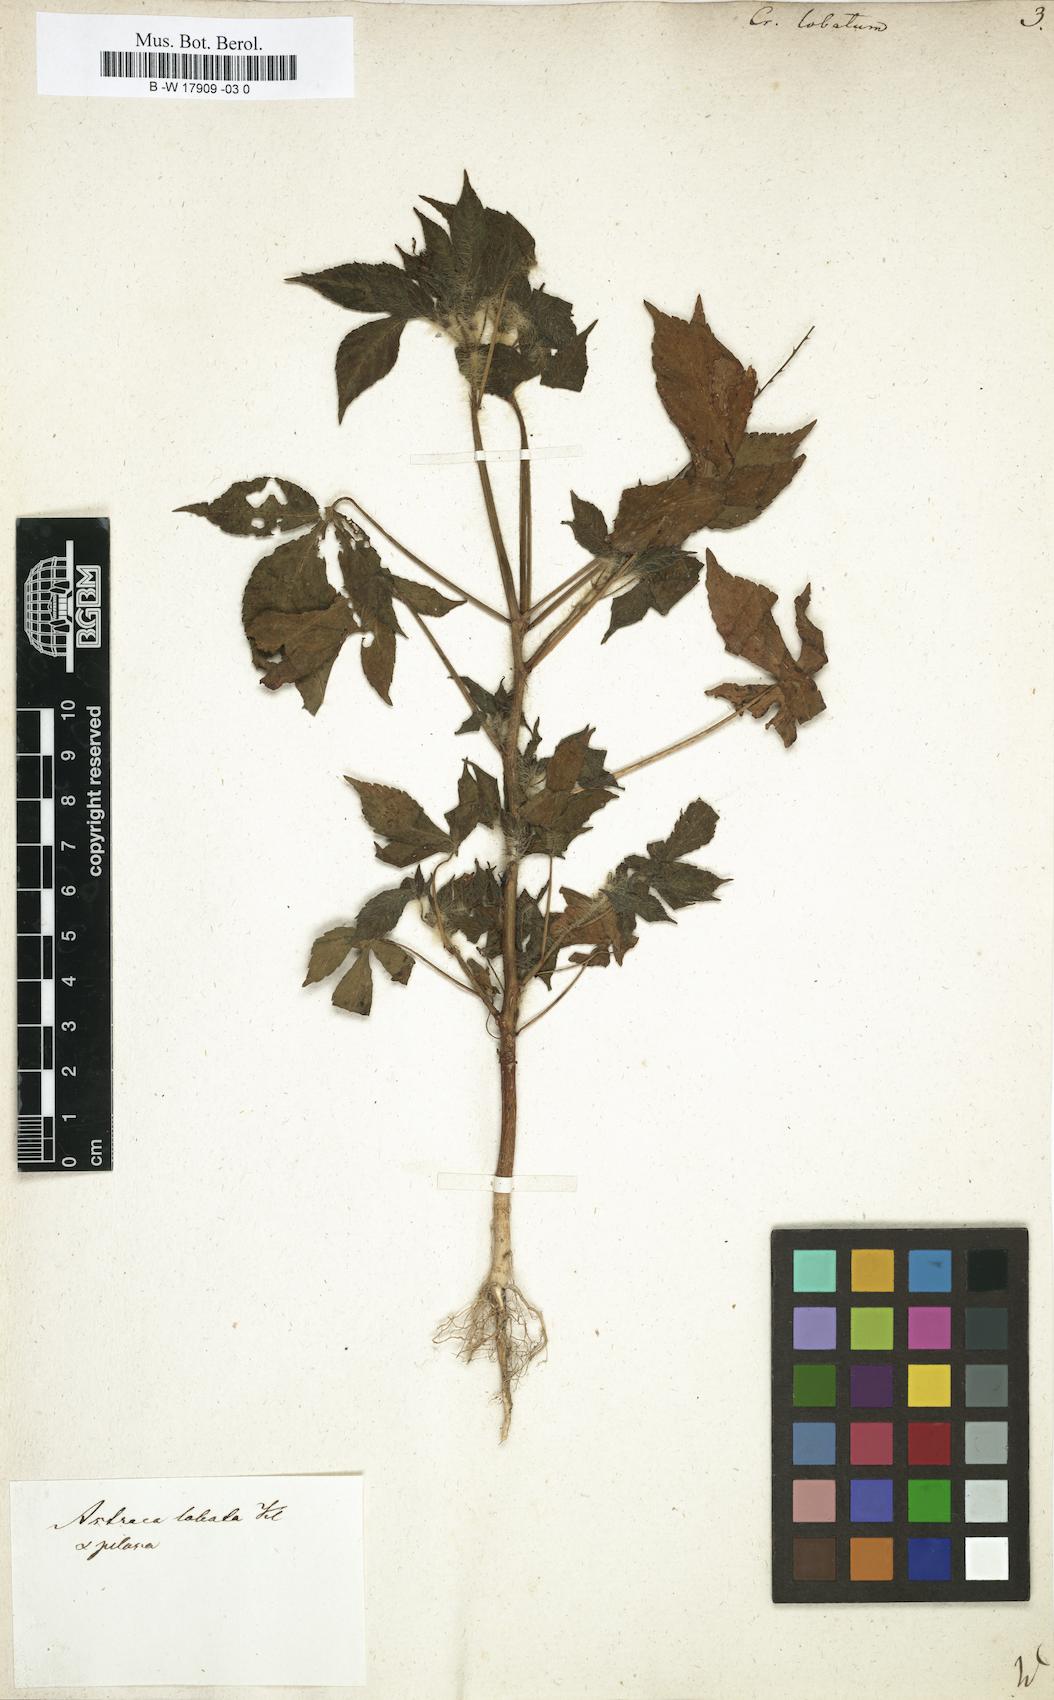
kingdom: Plantae
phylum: Tracheophyta
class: Magnoliopsida
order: Malpighiales
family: Euphorbiaceae
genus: Astraea
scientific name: Astraea lobata
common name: Lobed croton
